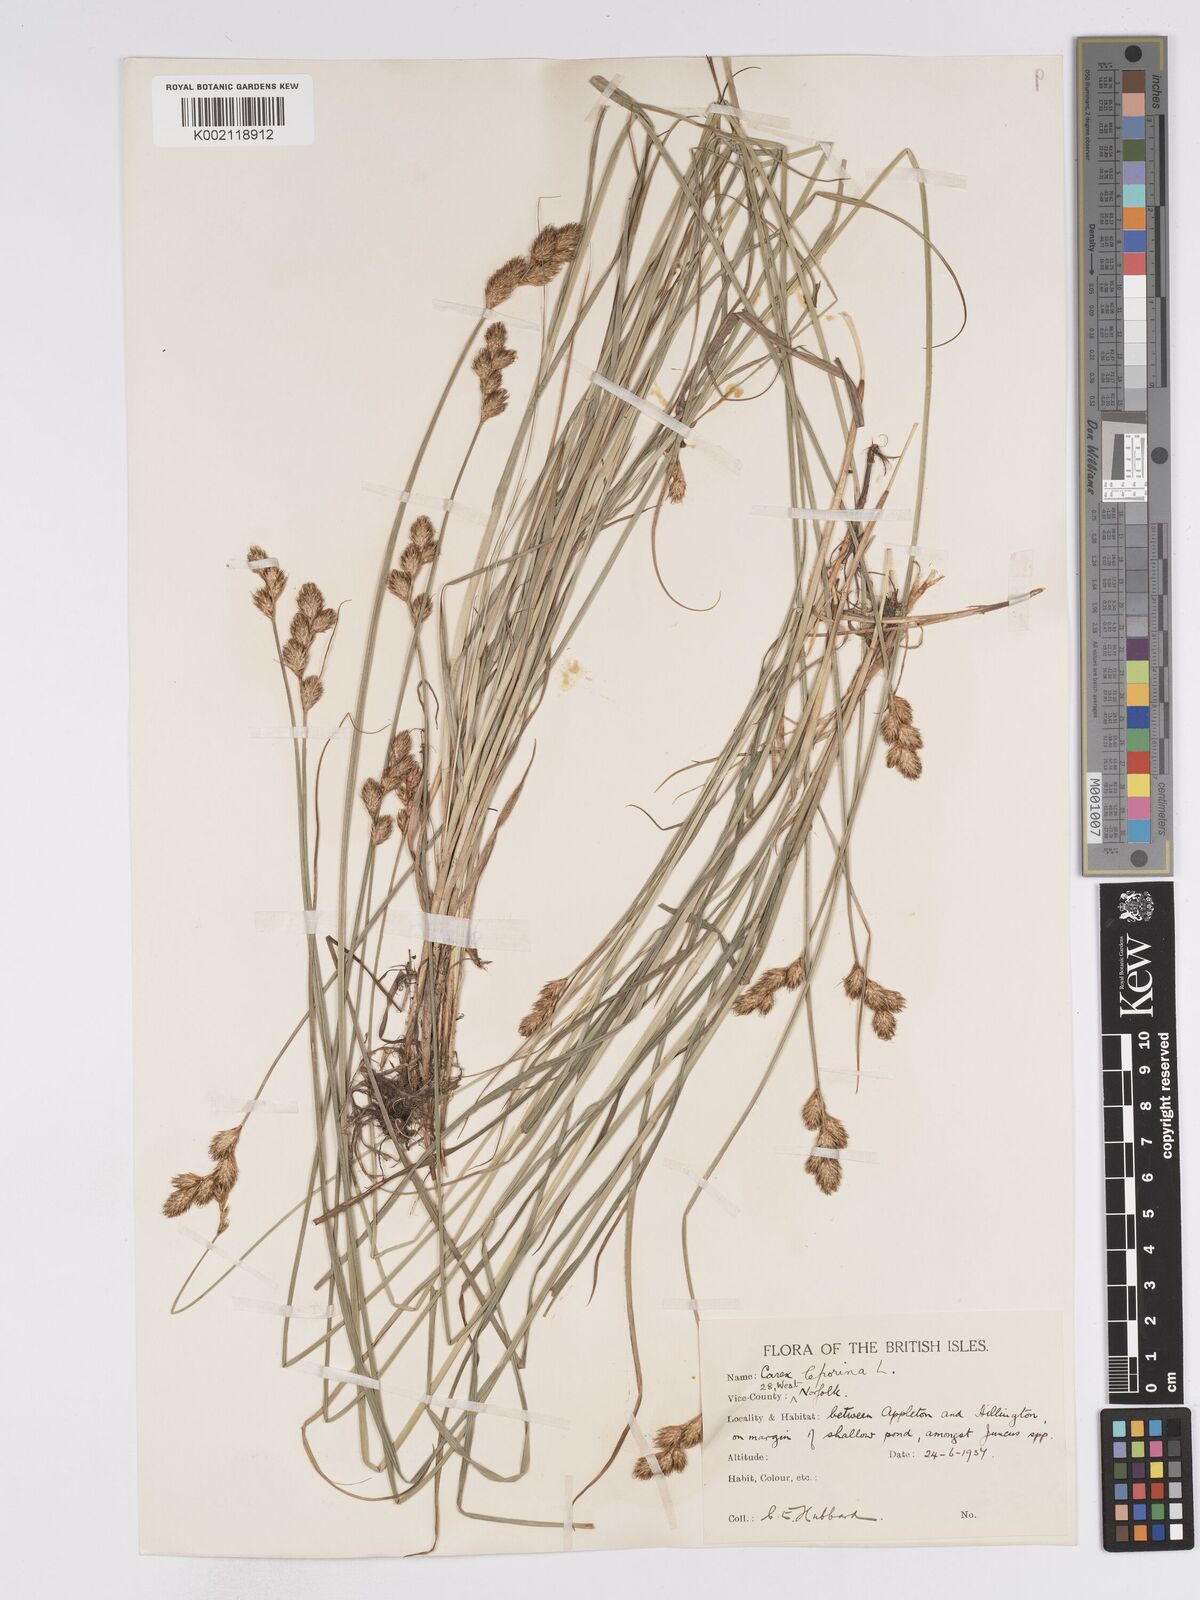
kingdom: Plantae
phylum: Tracheophyta
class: Liliopsida
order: Poales
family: Cyperaceae
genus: Carex
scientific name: Carex leporina
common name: Oval sedge
